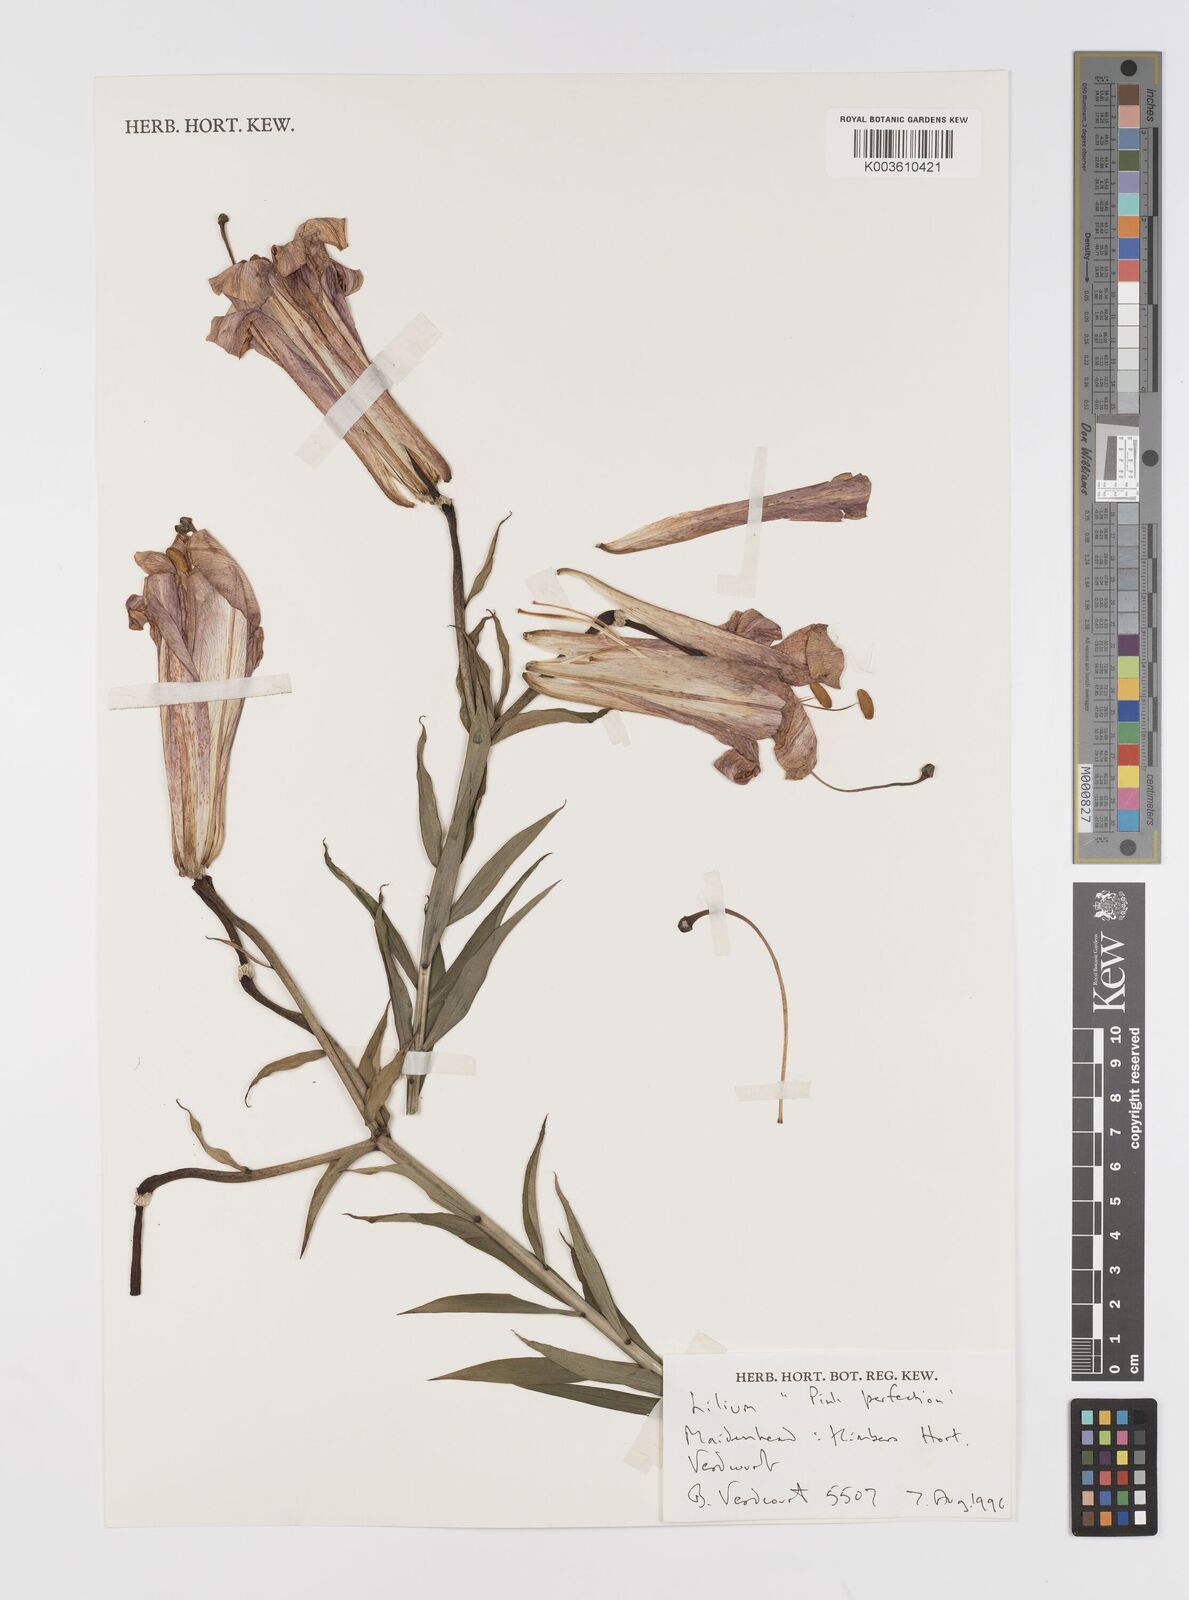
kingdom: Plantae
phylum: Tracheophyta
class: Liliopsida
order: Liliales
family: Liliaceae
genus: Lilium
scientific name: Lilium
